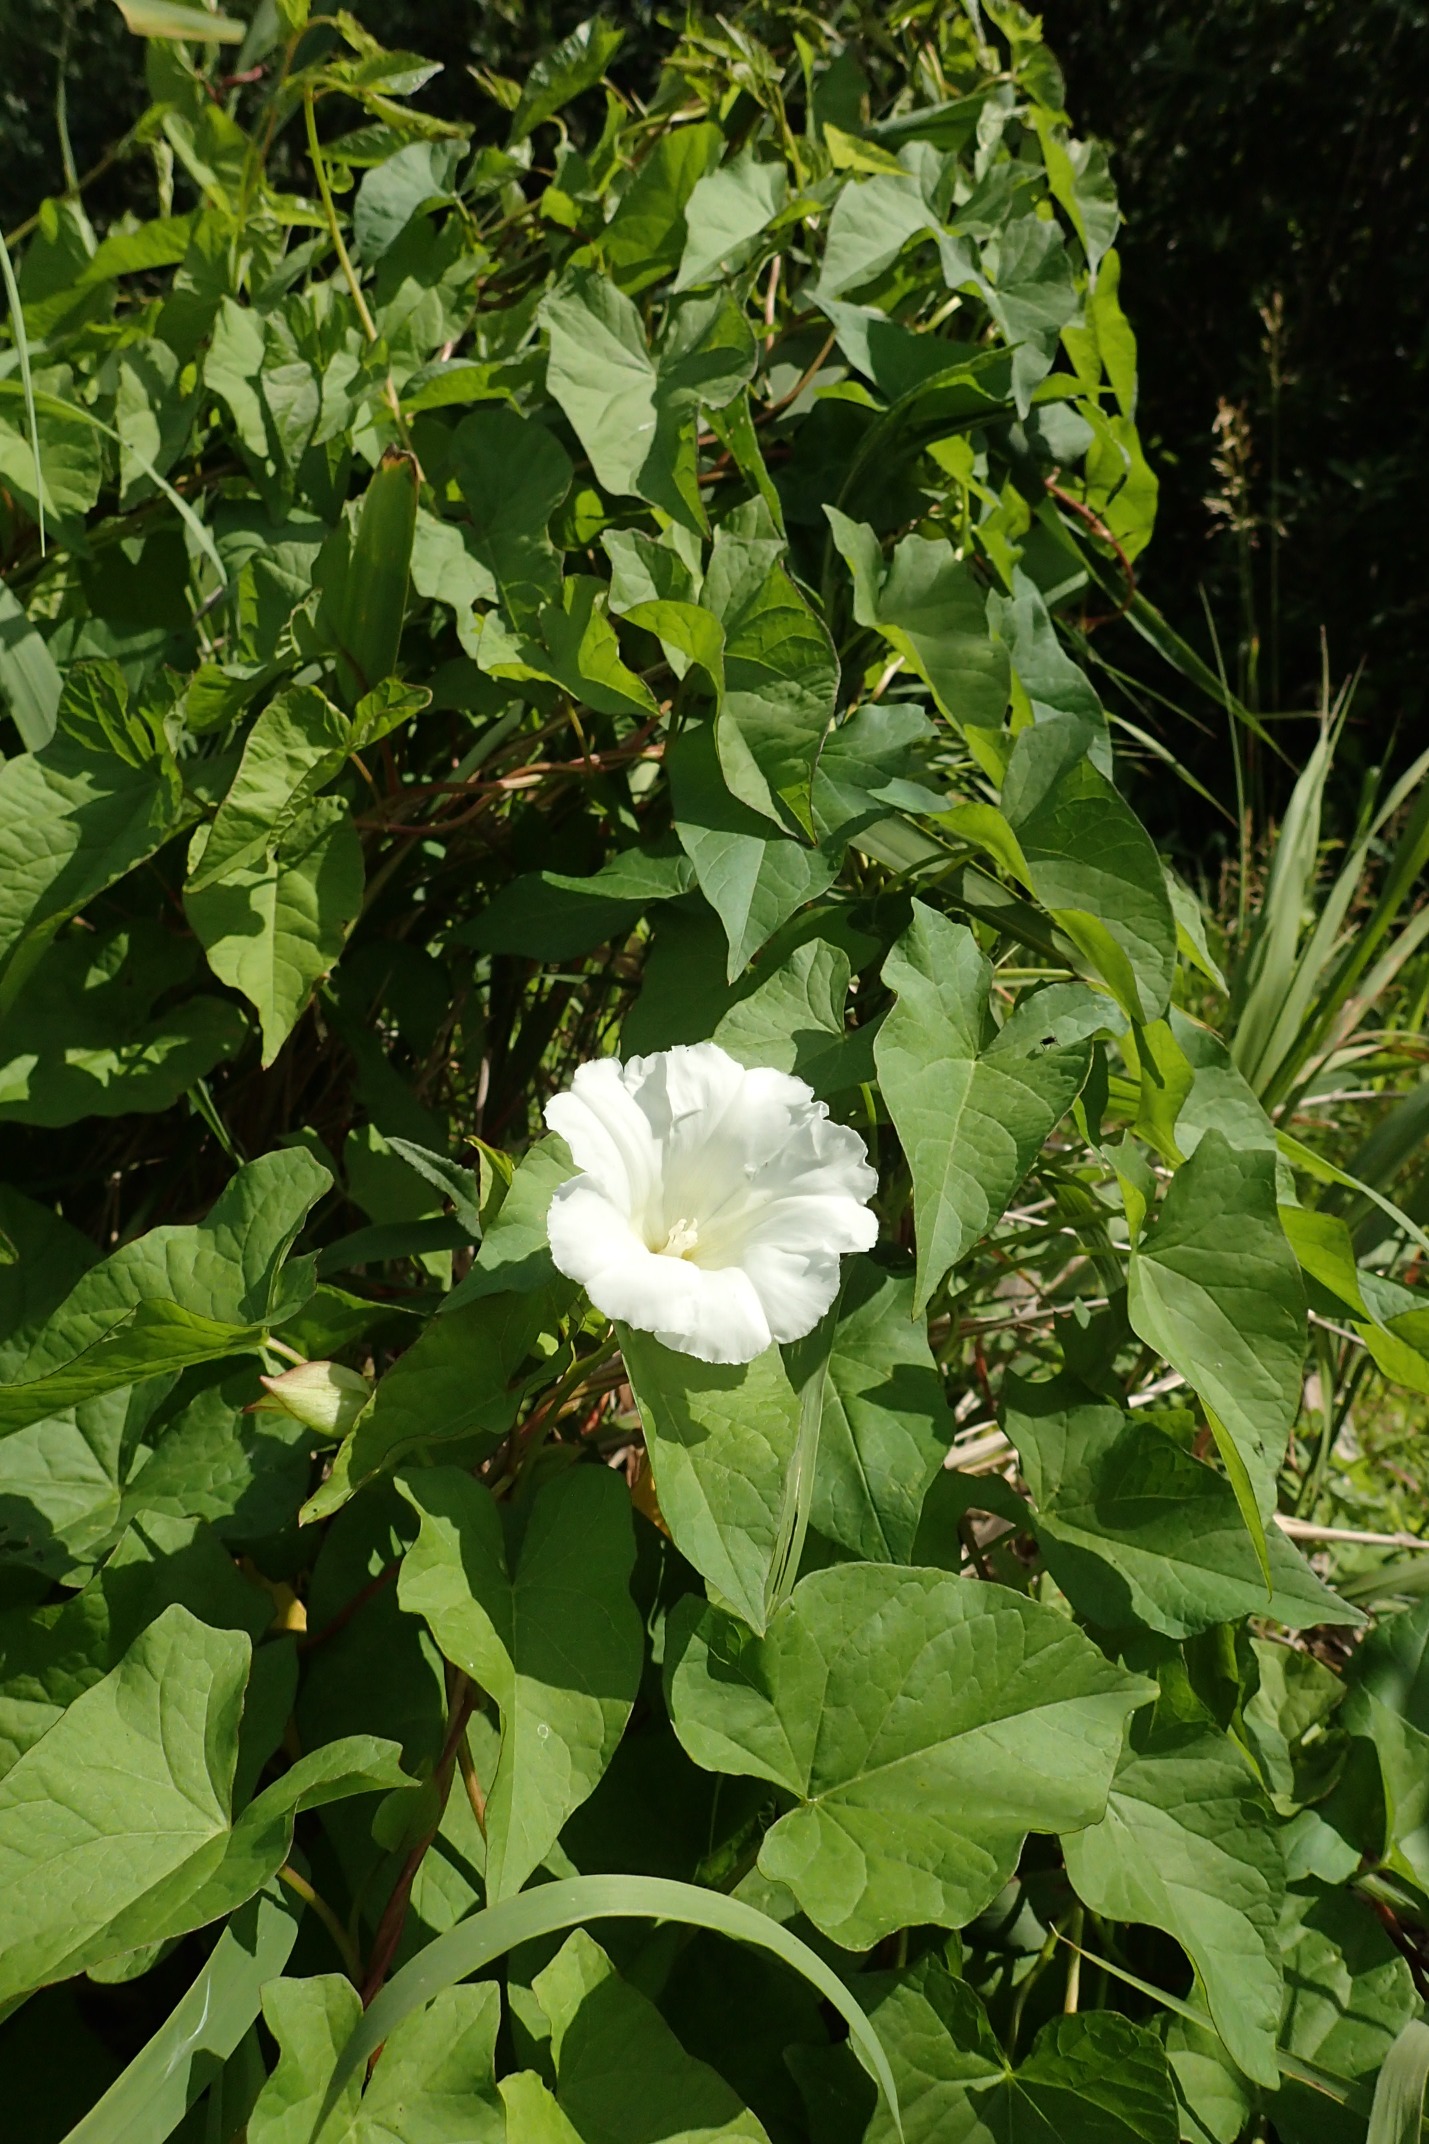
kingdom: Plantae
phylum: Tracheophyta
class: Magnoliopsida
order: Solanales
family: Convolvulaceae
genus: Calystegia
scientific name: Calystegia sepium
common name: Gærde-snerle
